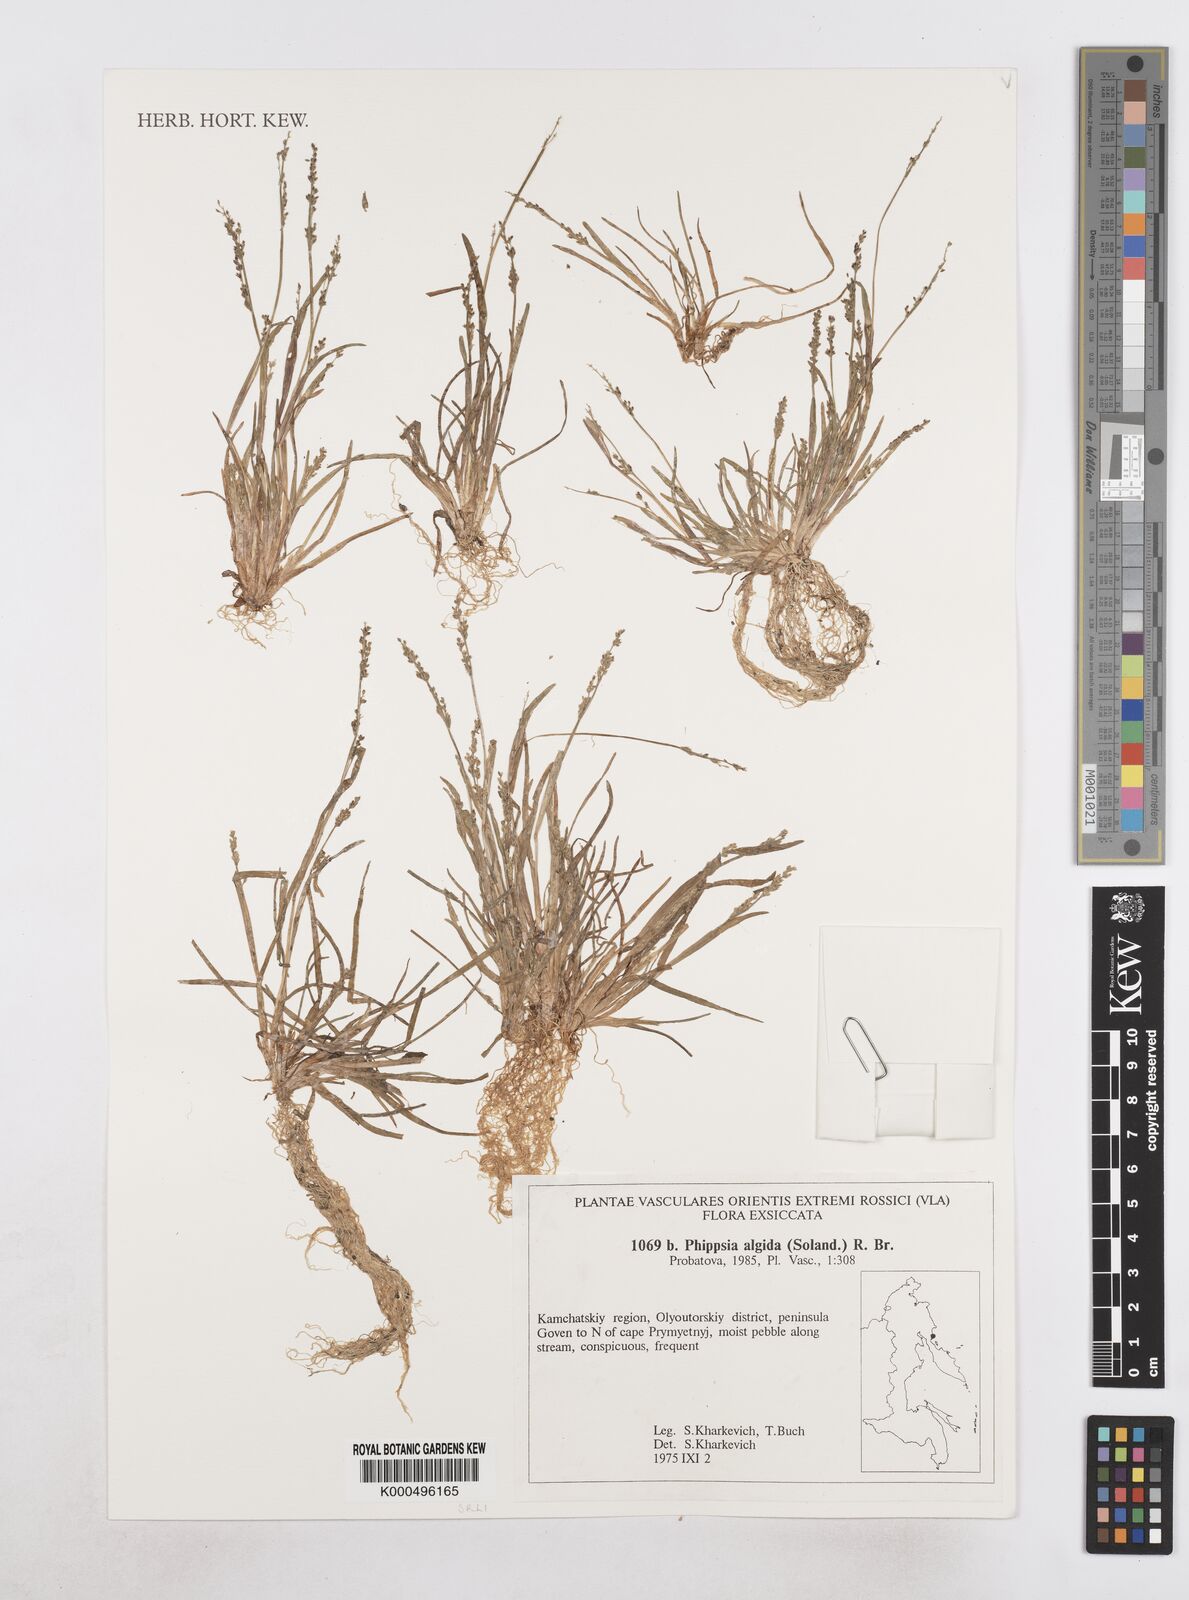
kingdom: Plantae
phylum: Tracheophyta
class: Liliopsida
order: Poales
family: Poaceae
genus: Phippsia
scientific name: Phippsia algida
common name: Ice grass
